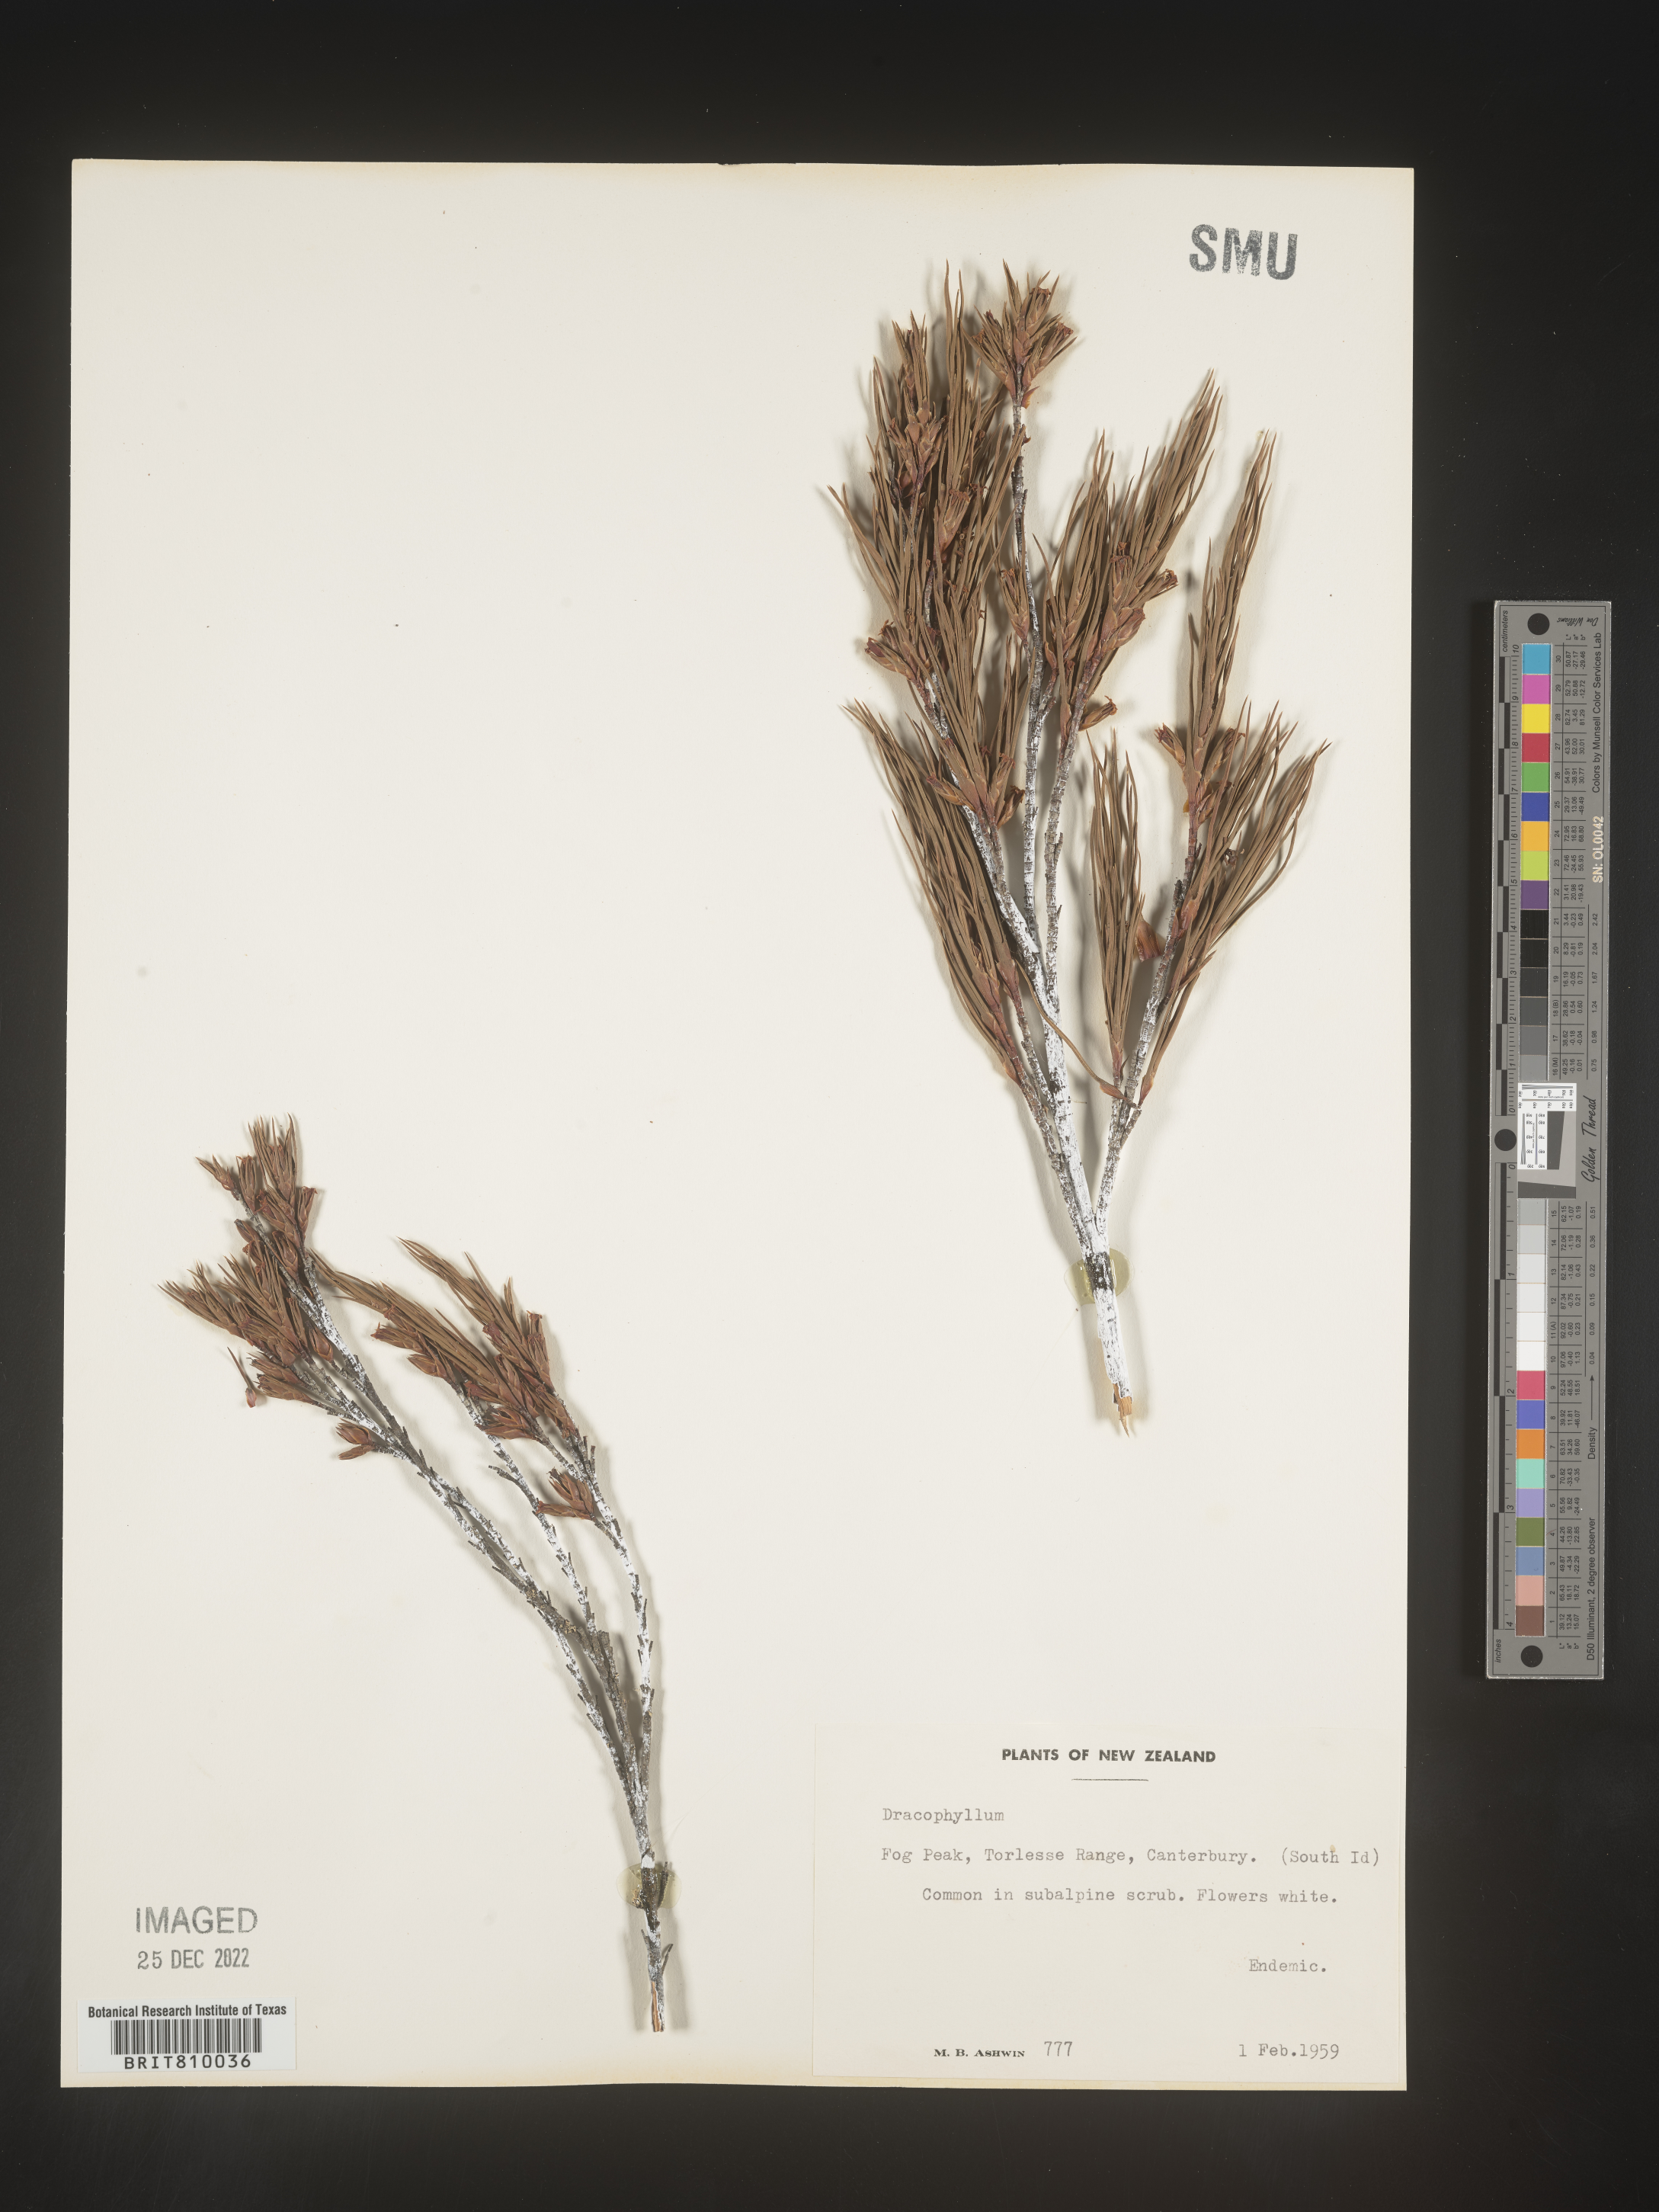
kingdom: Plantae
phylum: Tracheophyta
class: Magnoliopsida
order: Ericales
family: Ericaceae
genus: Dracophyllum
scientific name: Dracophyllum
